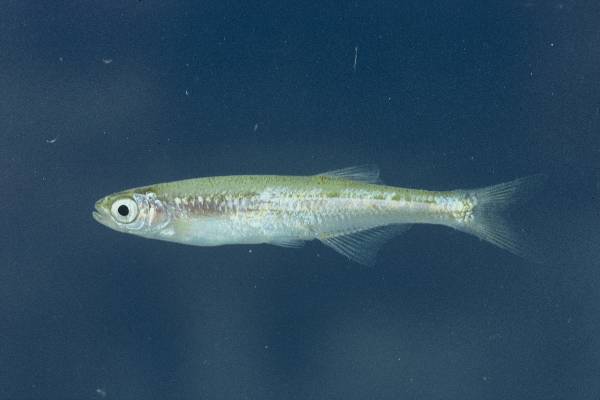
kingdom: Animalia
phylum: Chordata
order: Cypriniformes
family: Cyprinidae
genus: Engraulicypris
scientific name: Engraulicypris brevianalis
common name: River sardine
